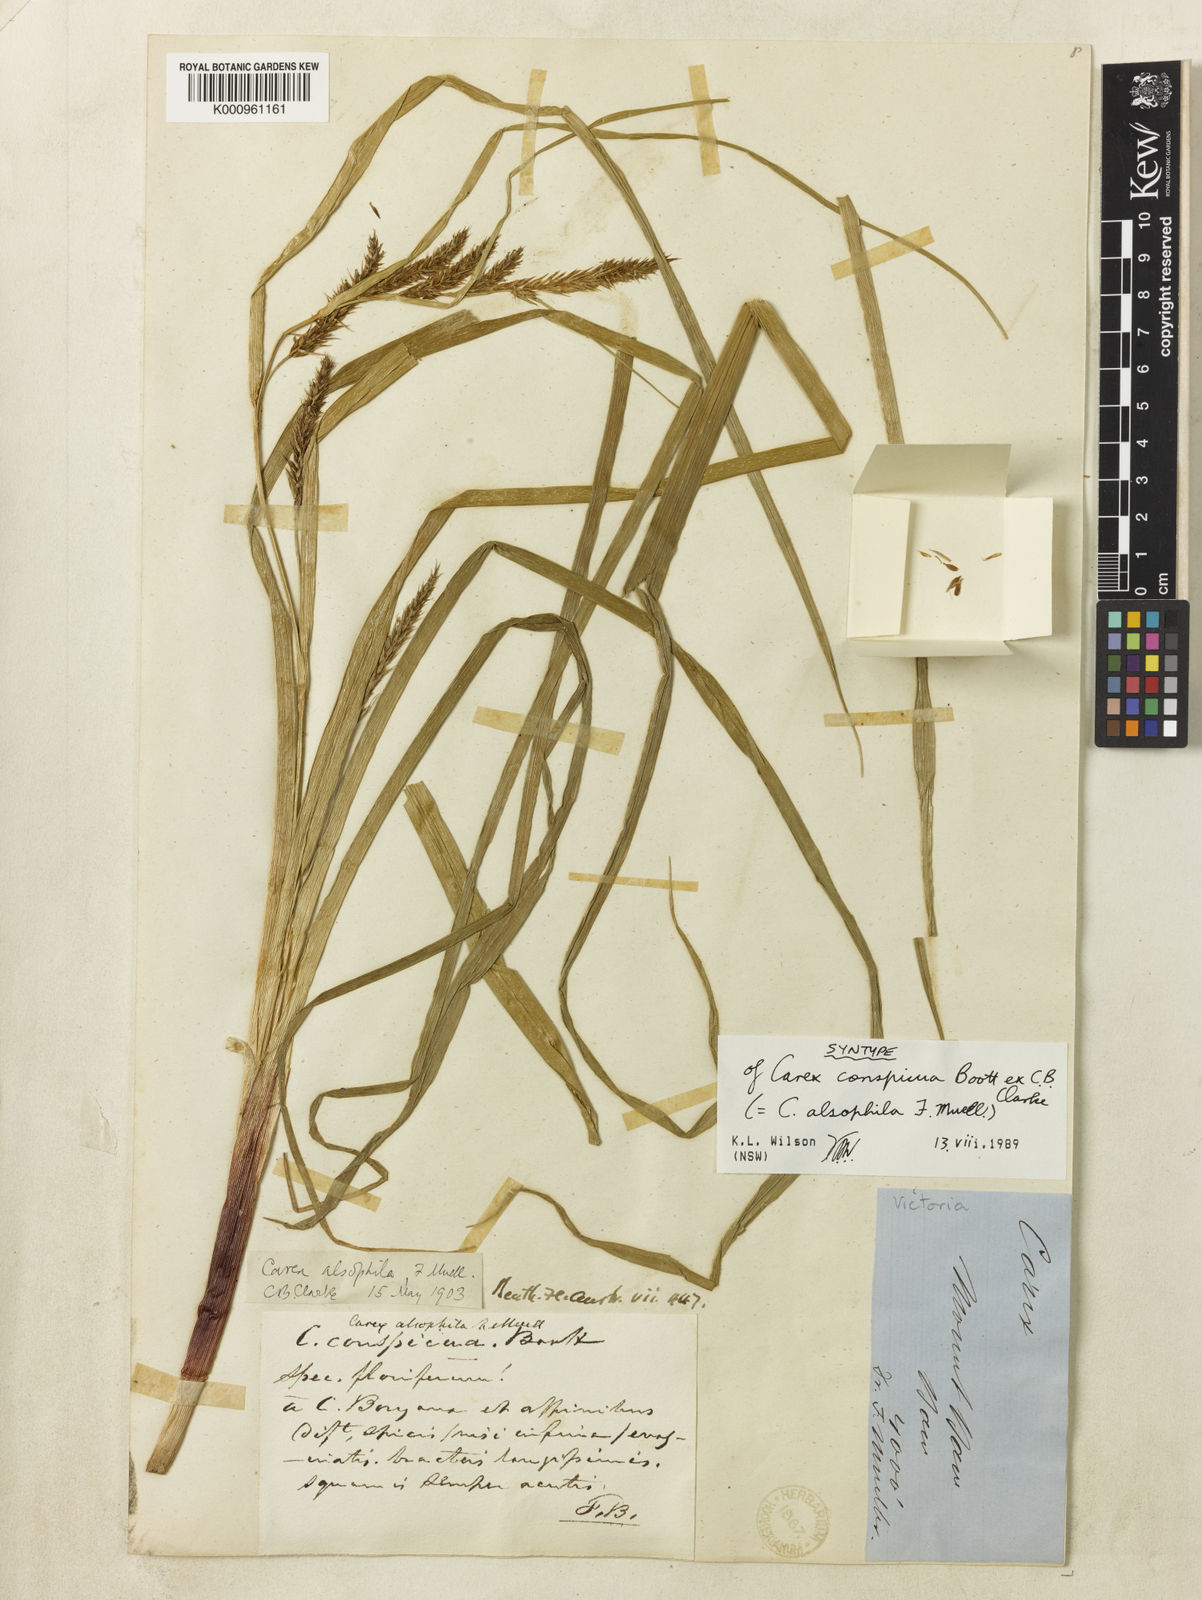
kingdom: Plantae
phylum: Tracheophyta
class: Liliopsida
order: Poales
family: Cyperaceae
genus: Carex
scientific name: Carex alsophila
